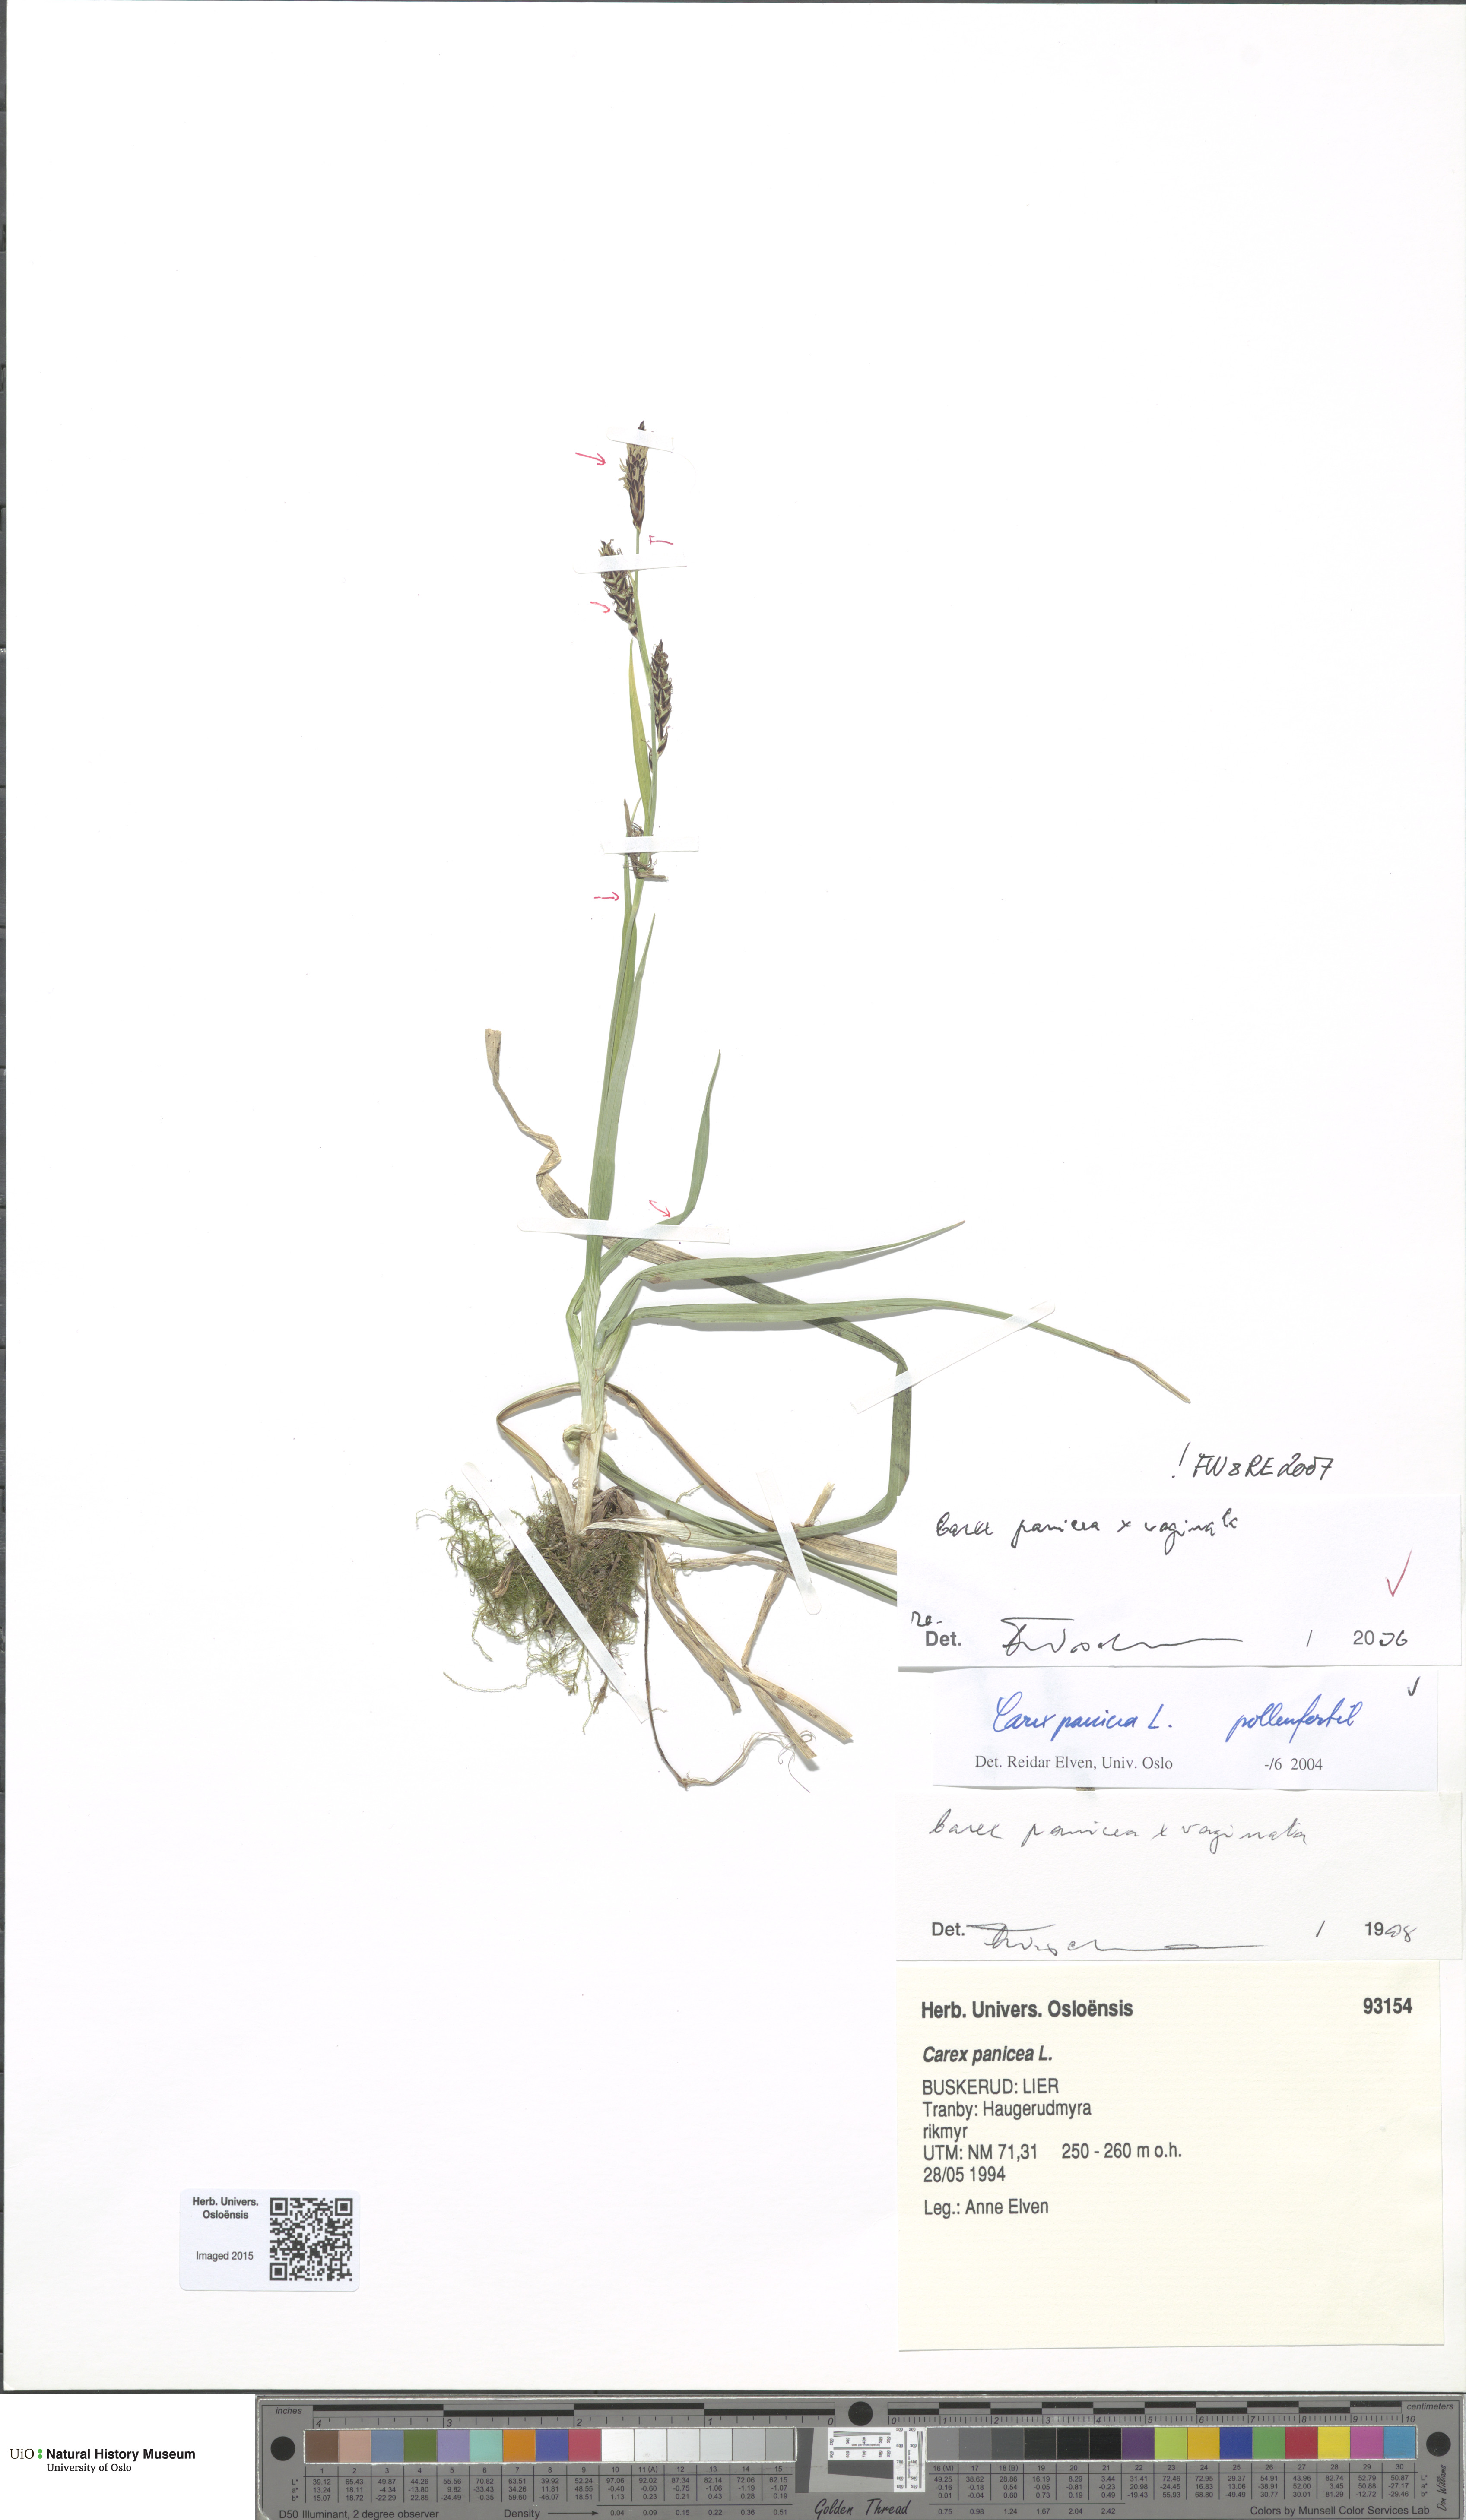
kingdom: Plantae
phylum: Tracheophyta
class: Liliopsida
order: Poales
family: Cyperaceae
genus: Carex
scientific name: Carex
